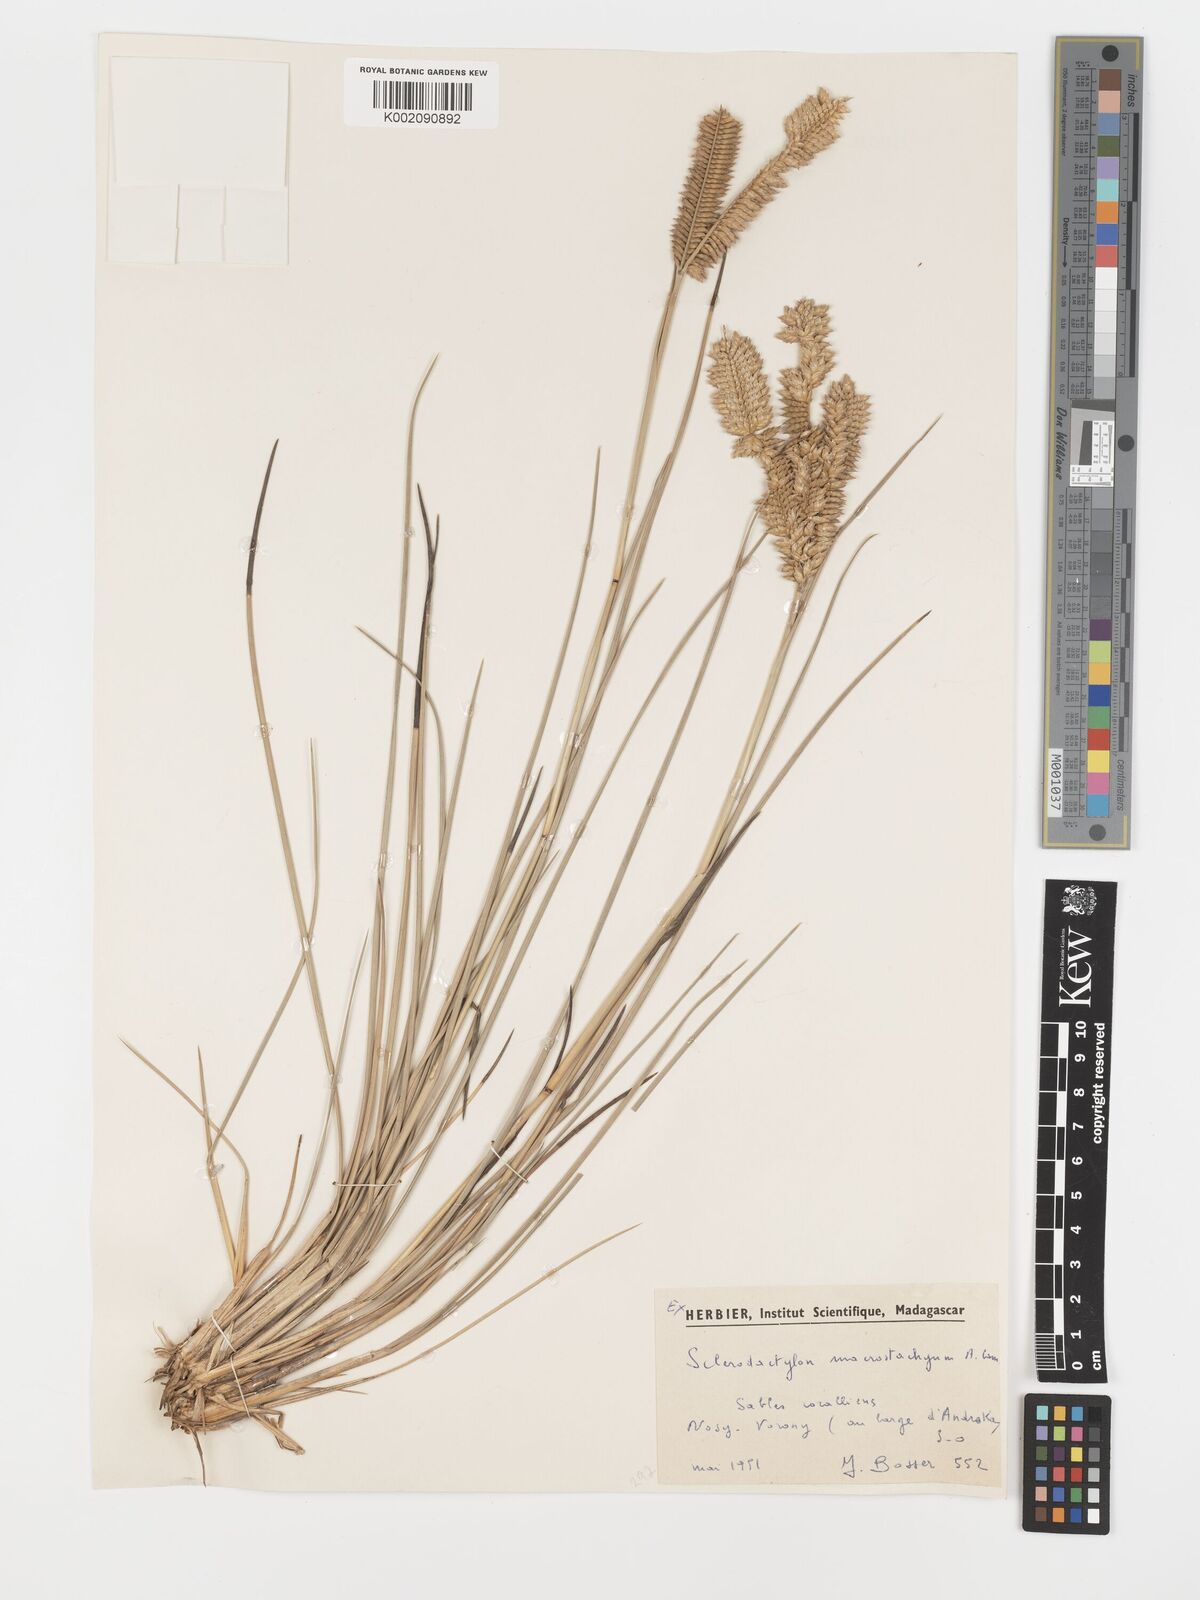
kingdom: Plantae
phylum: Tracheophyta
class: Liliopsida
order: Poales
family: Poaceae
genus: Sclerodactylon
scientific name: Sclerodactylon macrostachyum
